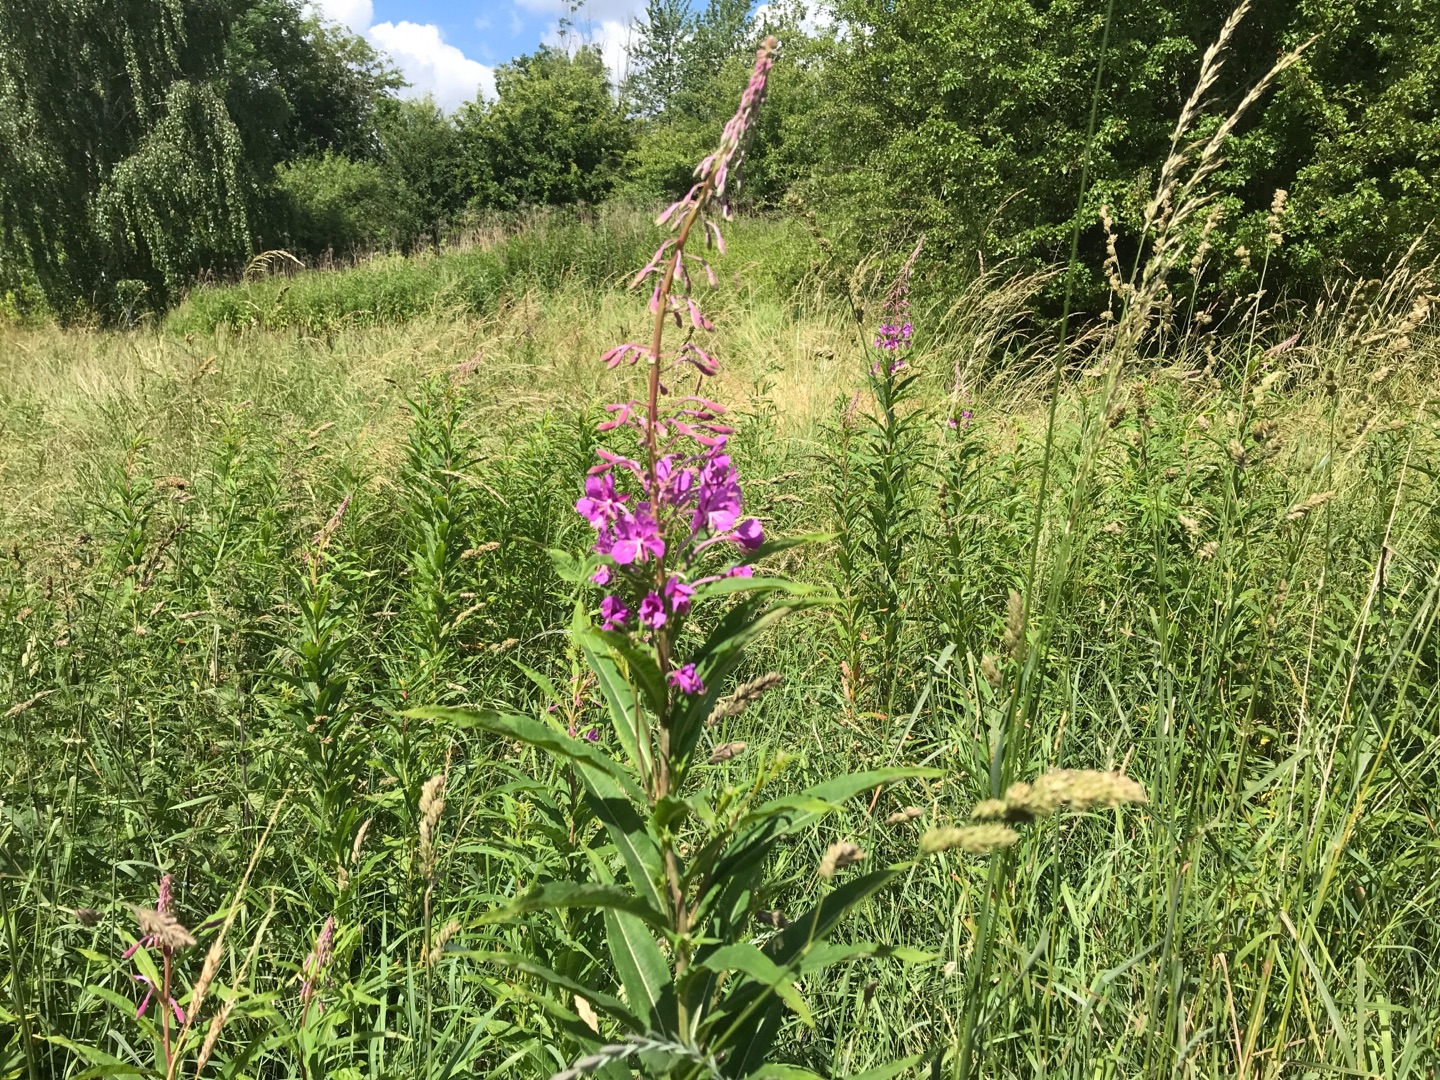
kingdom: Plantae
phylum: Tracheophyta
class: Magnoliopsida
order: Myrtales
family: Onagraceae
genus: Chamaenerion
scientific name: Chamaenerion angustifolium
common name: Gederams
